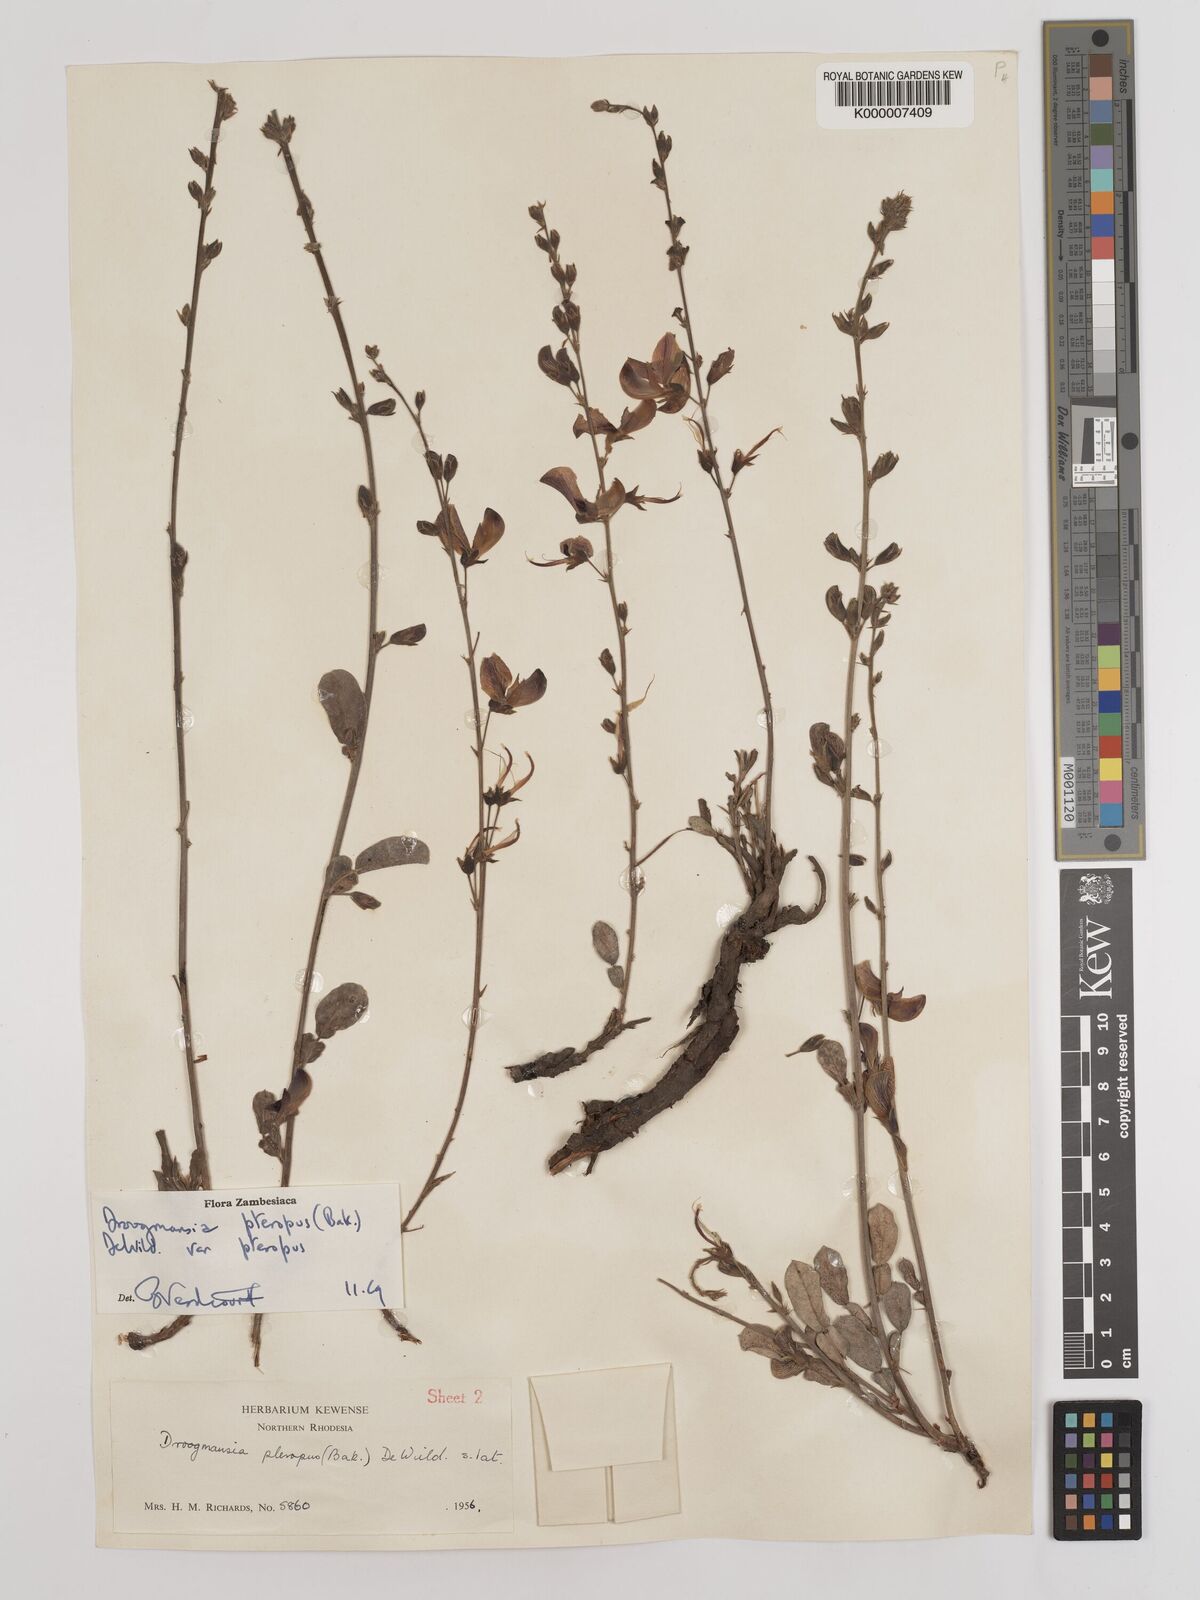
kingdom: Plantae
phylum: Tracheophyta
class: Magnoliopsida
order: Fabales
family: Fabaceae
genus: Droogmansia
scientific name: Droogmansia pteropus
